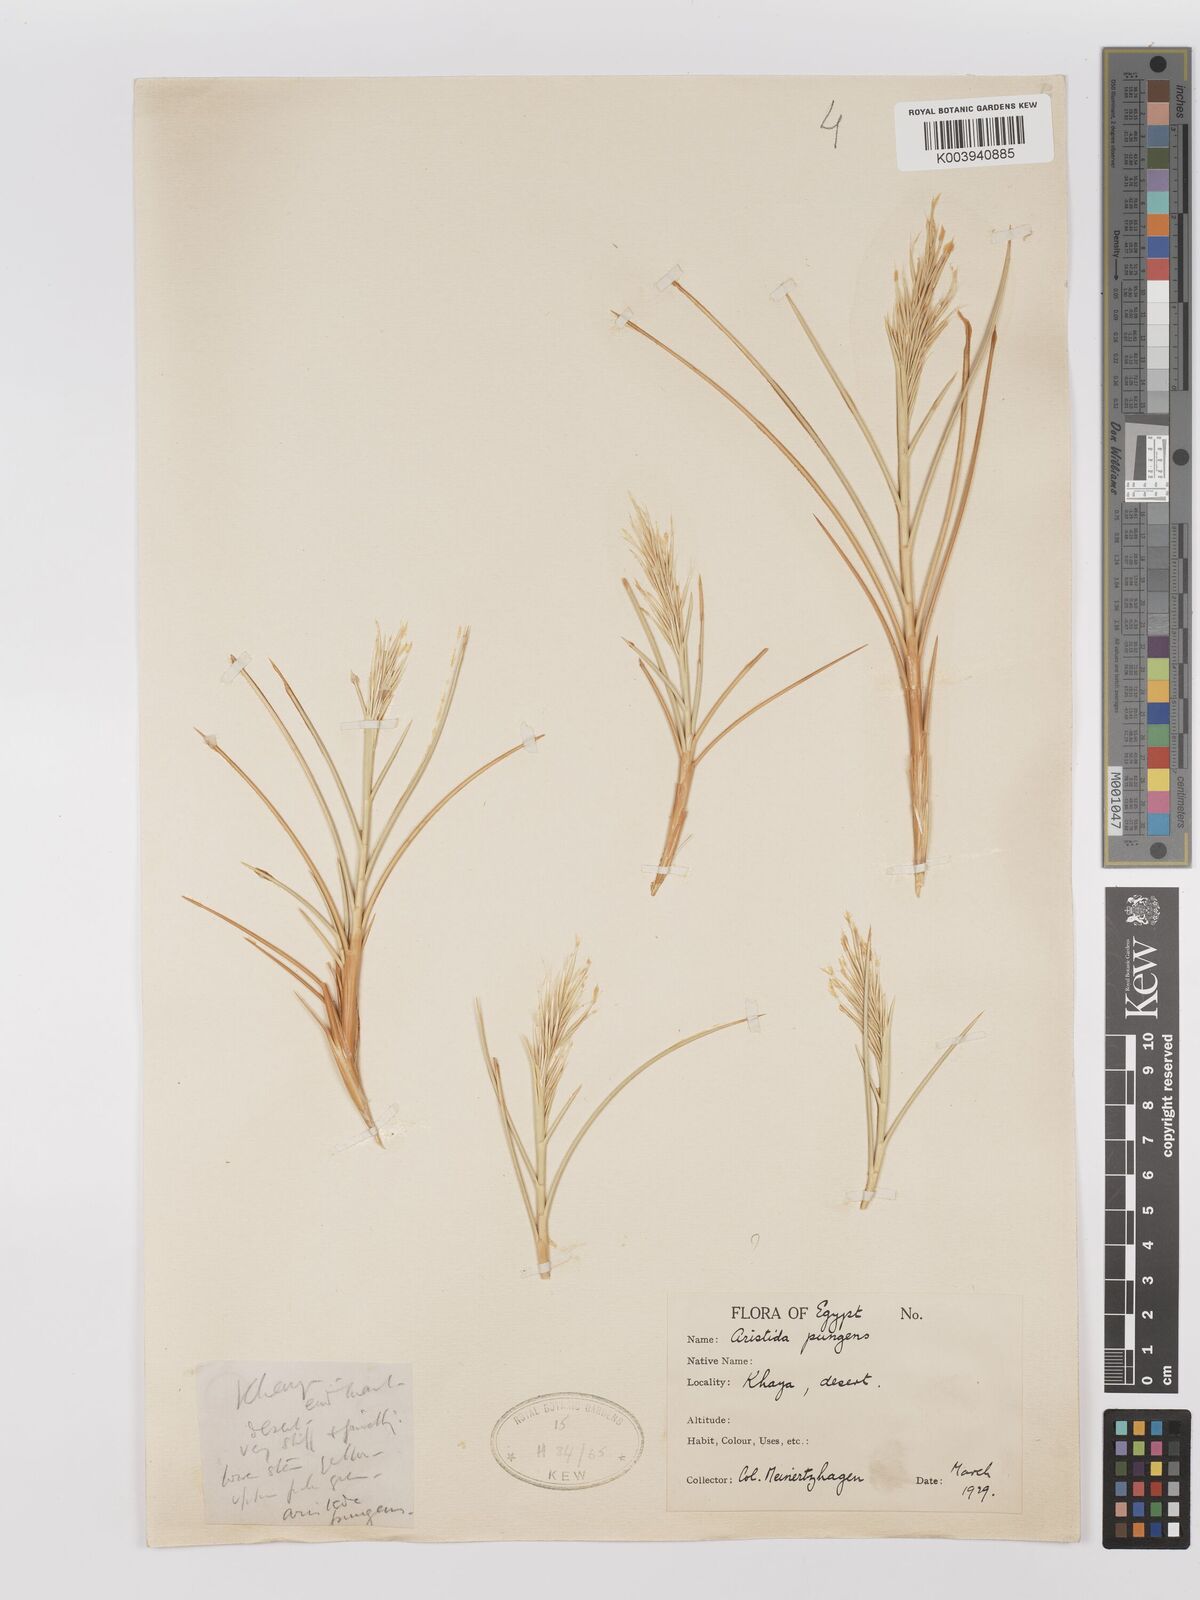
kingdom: Plantae
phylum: Tracheophyta
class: Liliopsida
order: Poales
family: Poaceae
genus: Stipagrostis
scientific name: Stipagrostis vulnerans
